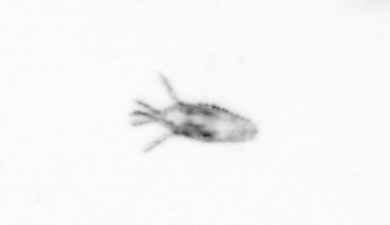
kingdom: Animalia
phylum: Arthropoda
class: Copepoda
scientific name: Copepoda
